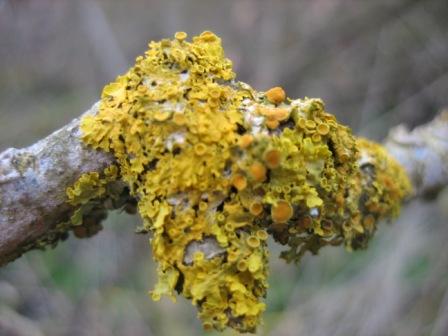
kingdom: Fungi
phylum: Ascomycota
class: Lecanoromycetes
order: Teloschistales
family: Teloschistaceae
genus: Xanthoria
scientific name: Xanthoria parietina
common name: almindelig væggelav
